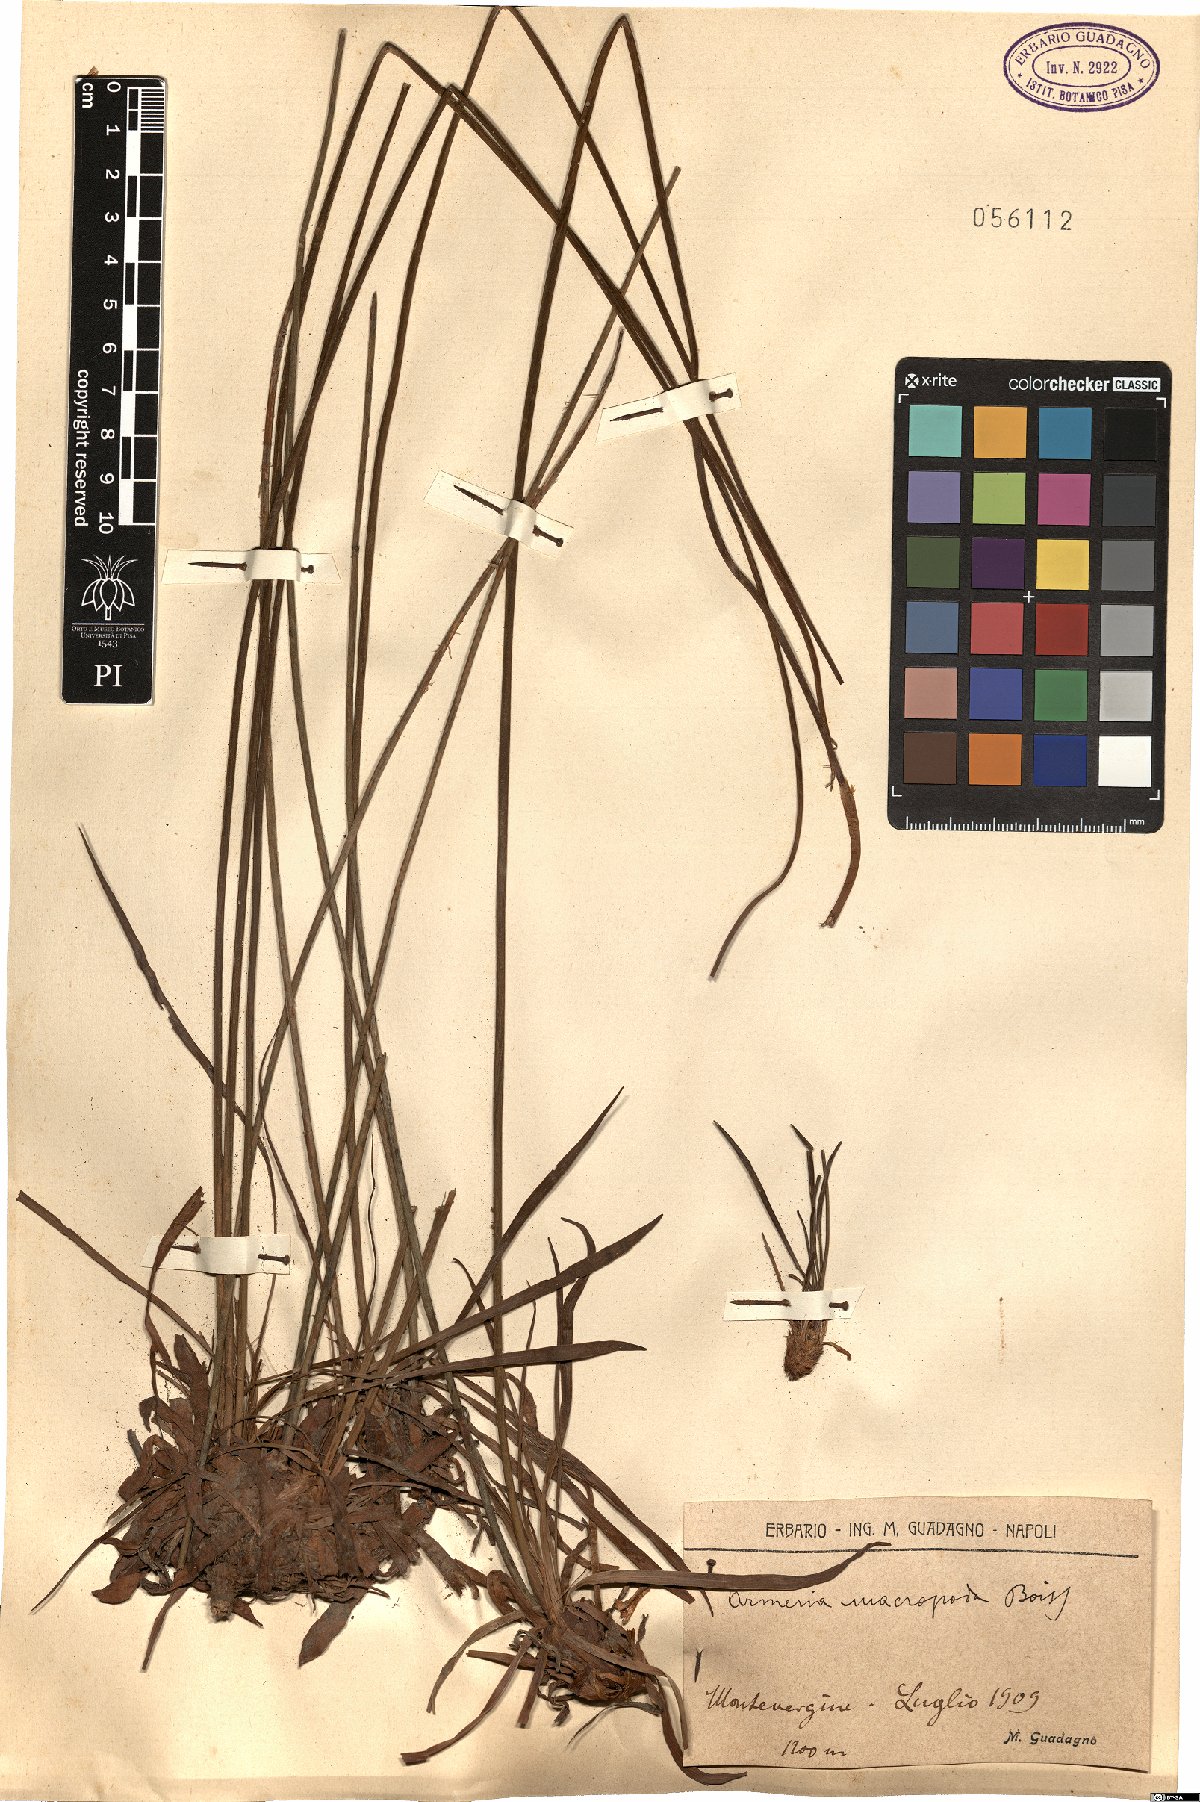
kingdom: Plantae
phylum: Tracheophyta
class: Magnoliopsida
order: Caryophyllales
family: Plumbaginaceae
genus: Armeria
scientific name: Armeria macropoda
